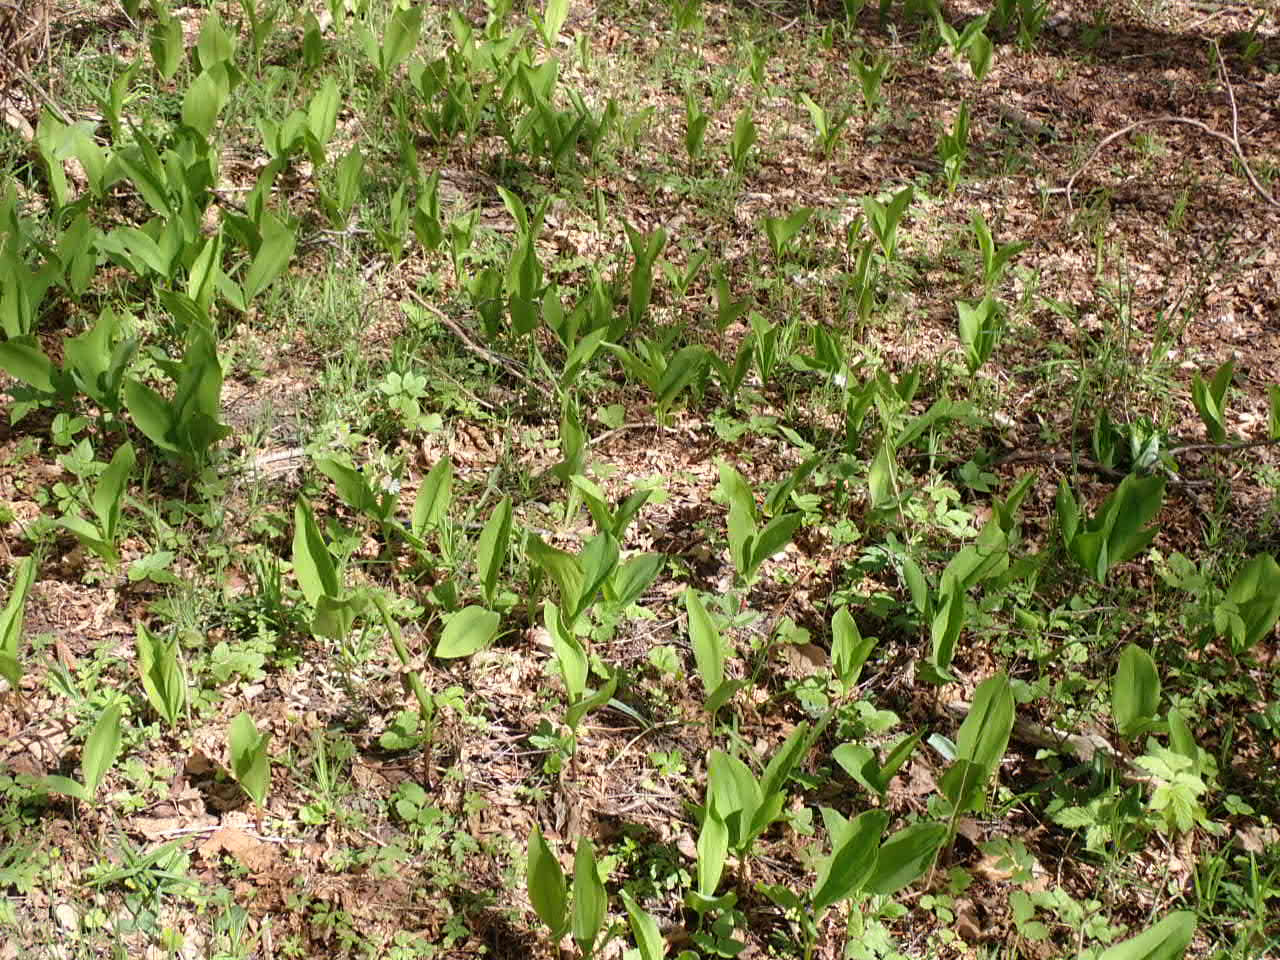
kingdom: Plantae
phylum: Tracheophyta
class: Liliopsida
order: Asparagales
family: Asparagaceae
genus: Convallaria
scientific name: Convallaria majalis
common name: Liljekonval
